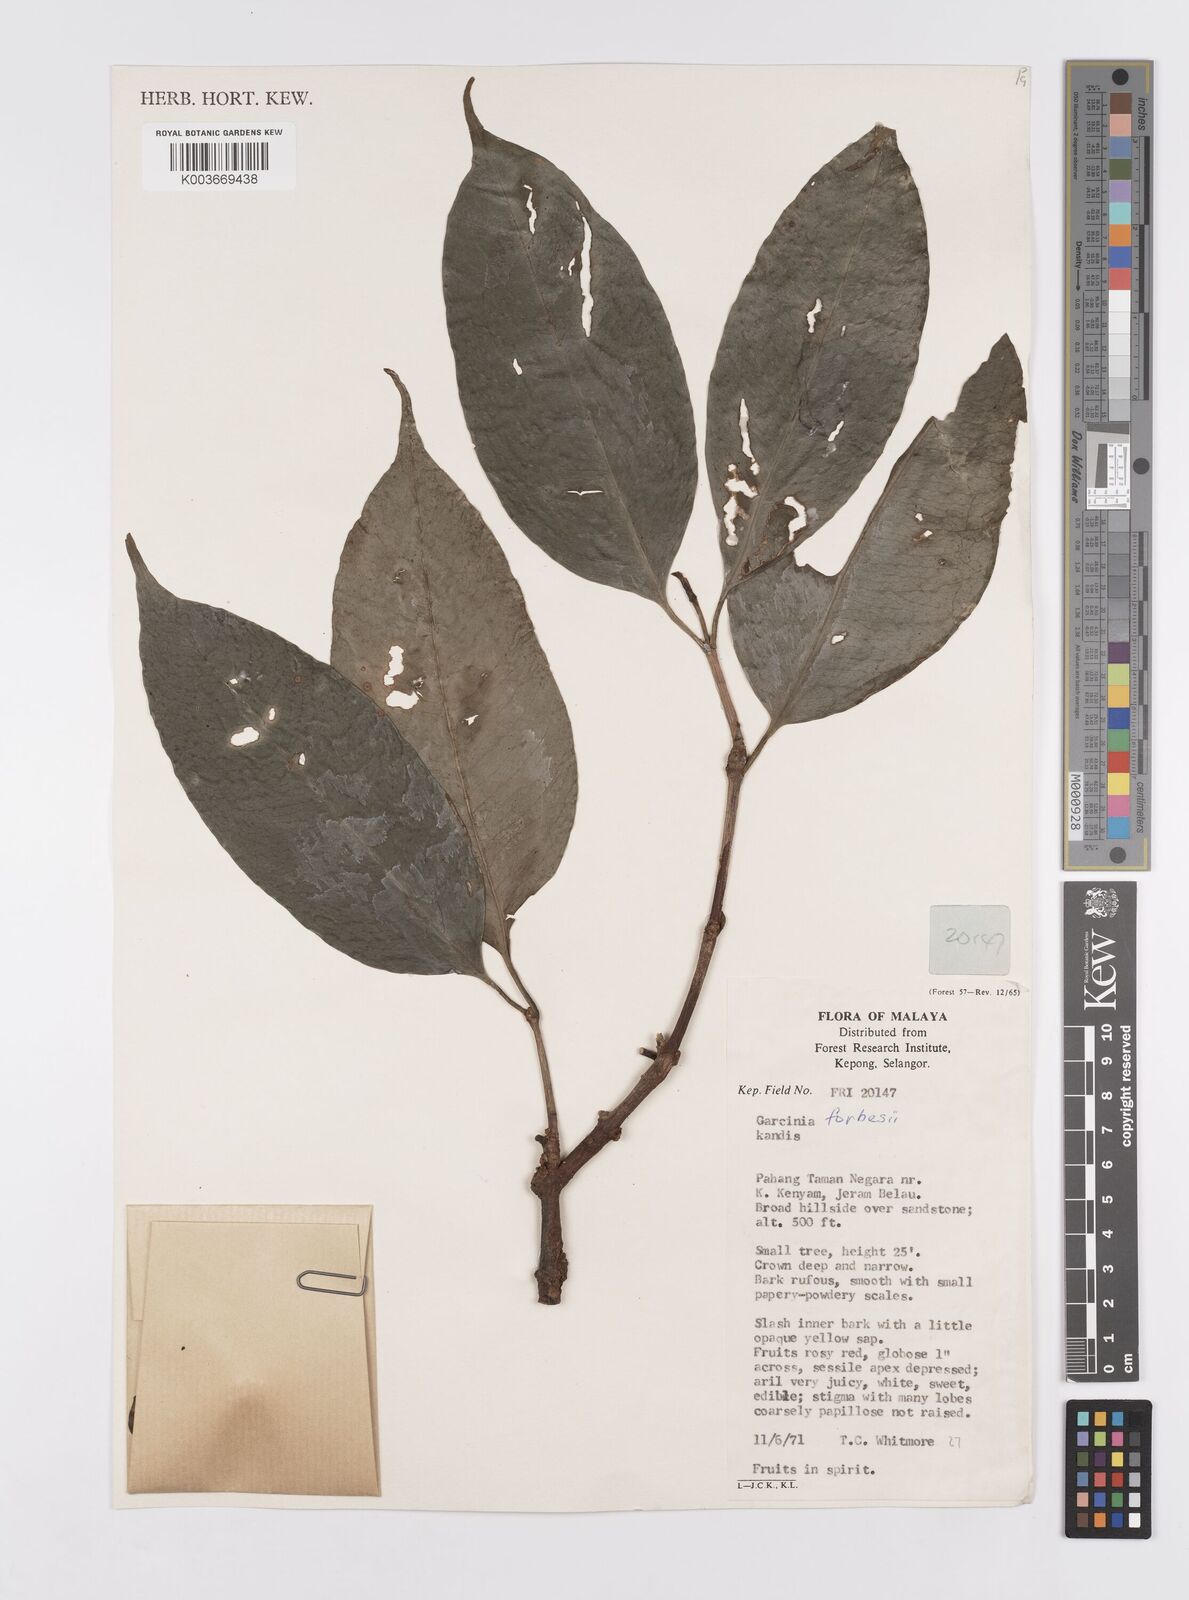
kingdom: Plantae
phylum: Tracheophyta
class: Magnoliopsida
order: Malpighiales
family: Clusiaceae
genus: Garcinia
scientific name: Garcinia forbesii
